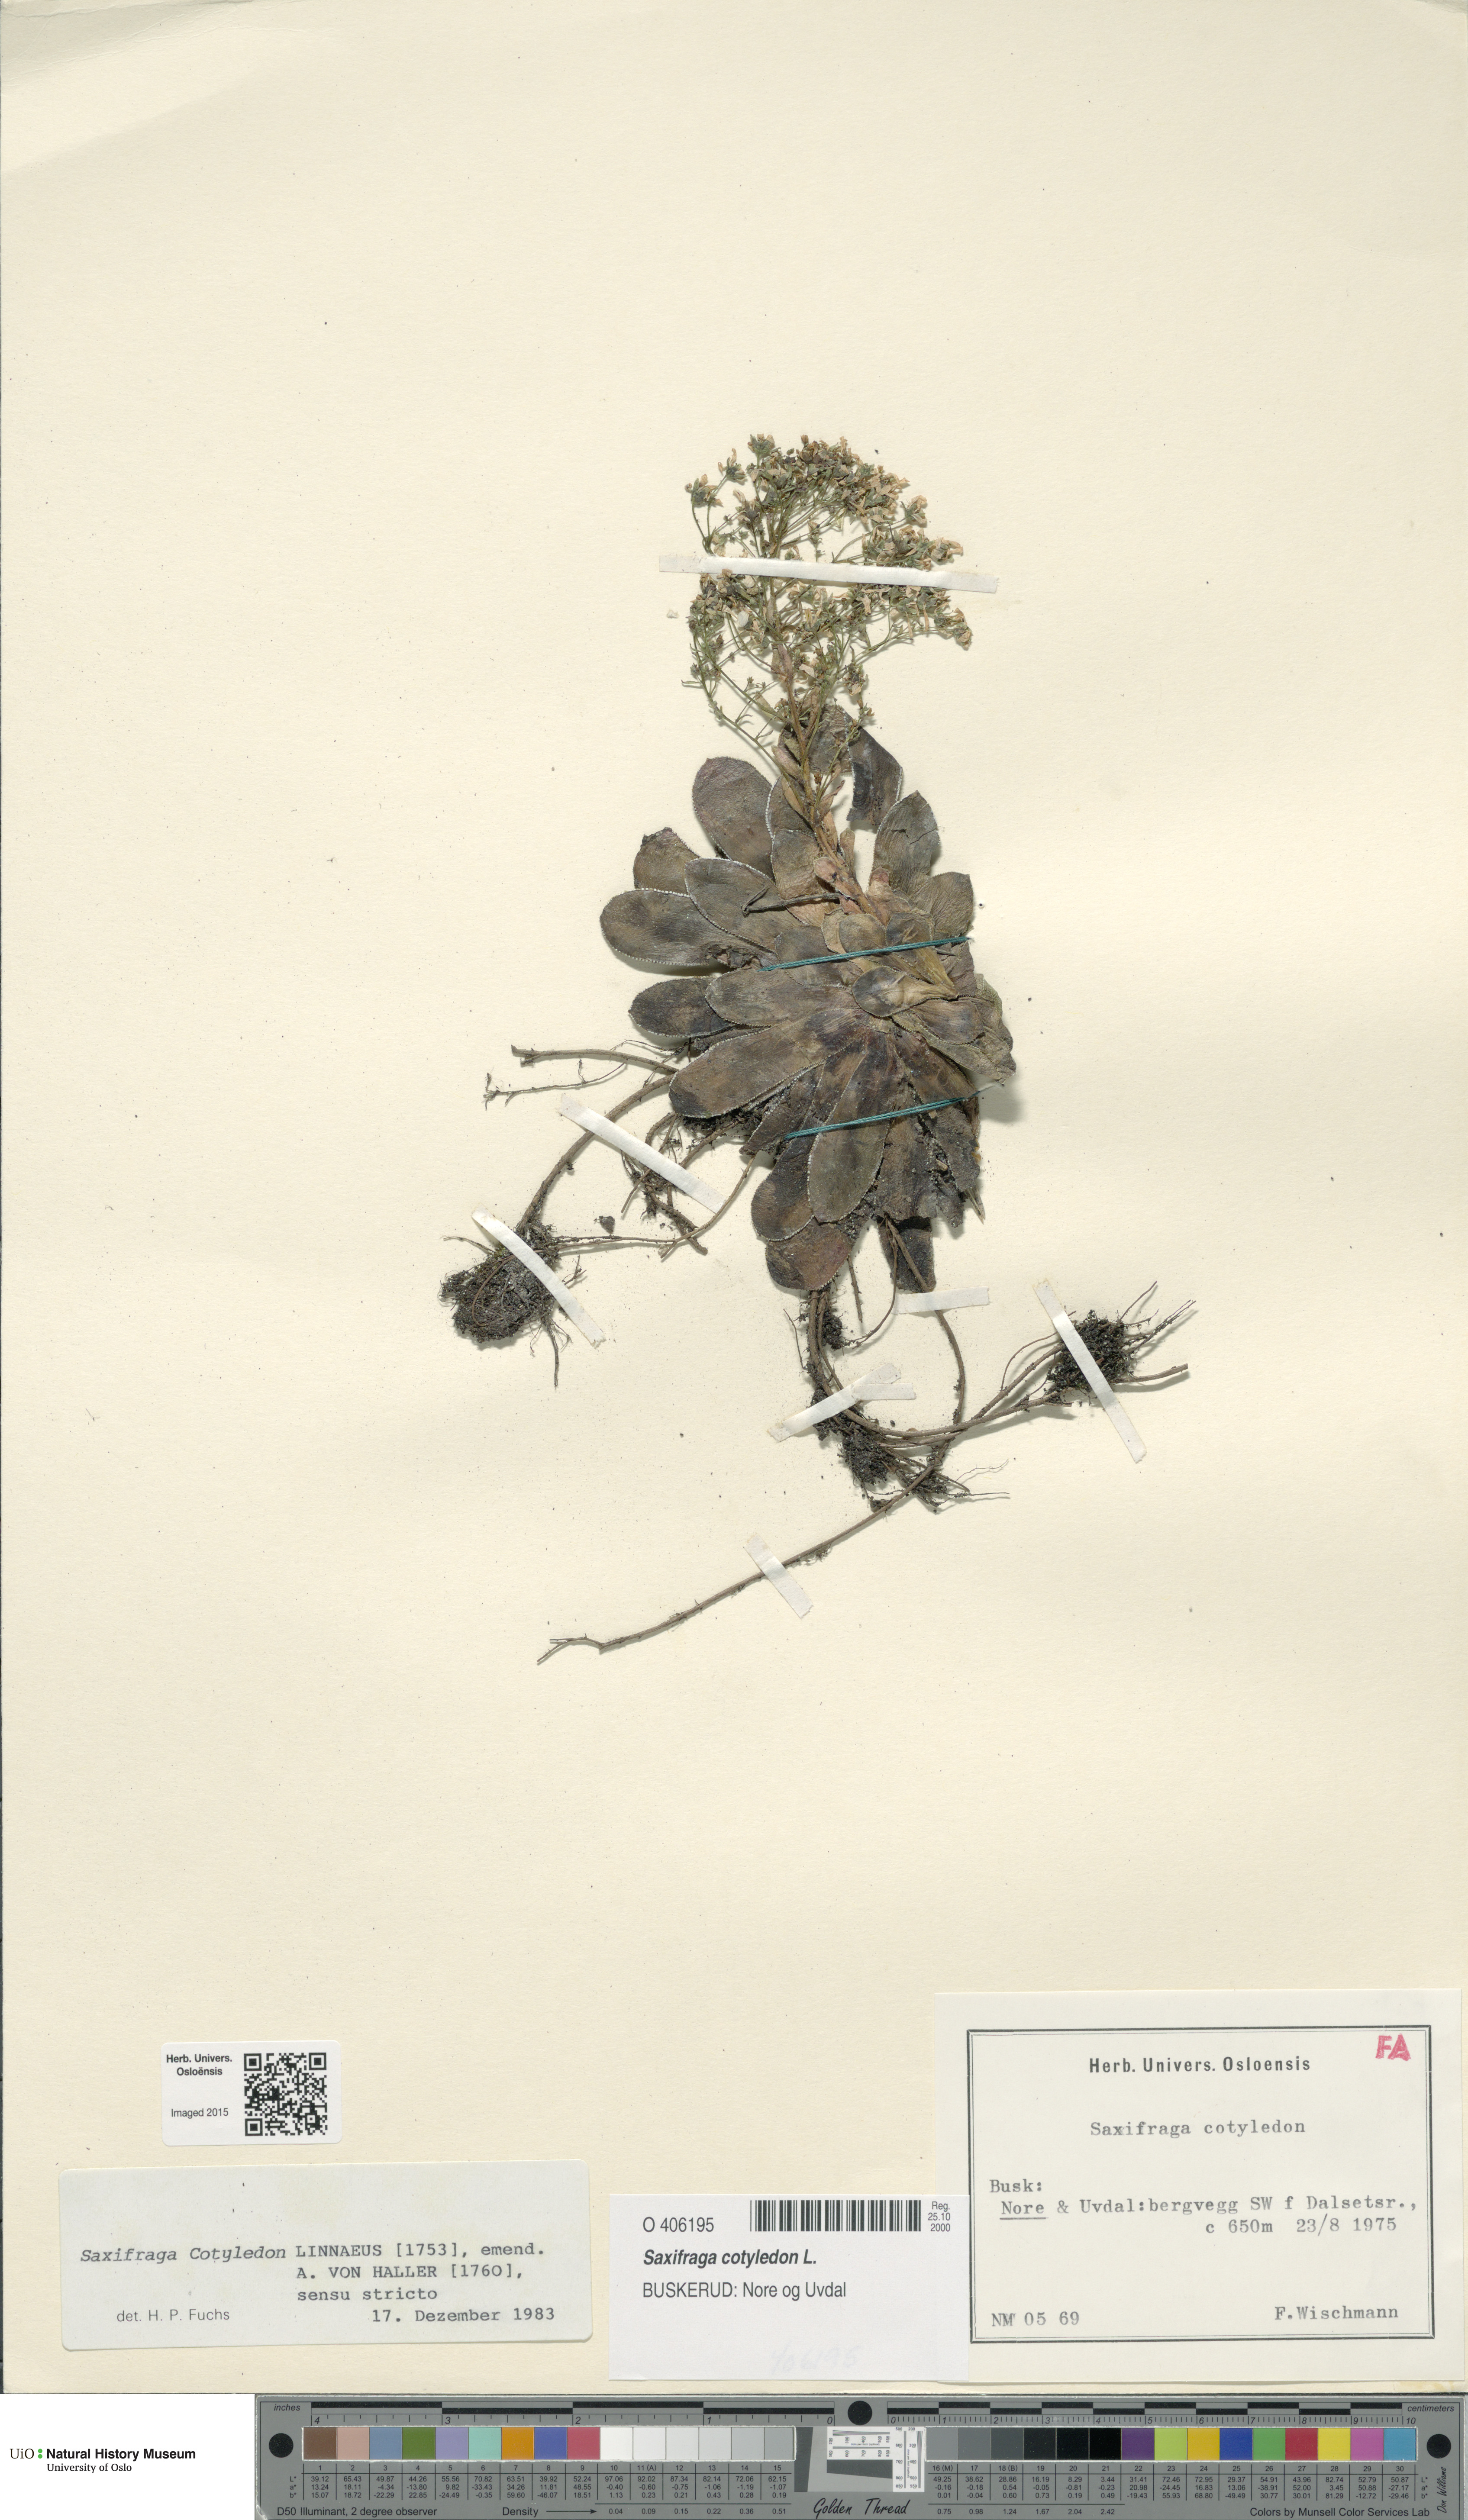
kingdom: Plantae
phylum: Tracheophyta
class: Magnoliopsida
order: Saxifragales
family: Saxifragaceae
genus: Saxifraga
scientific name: Saxifraga cotyledon
